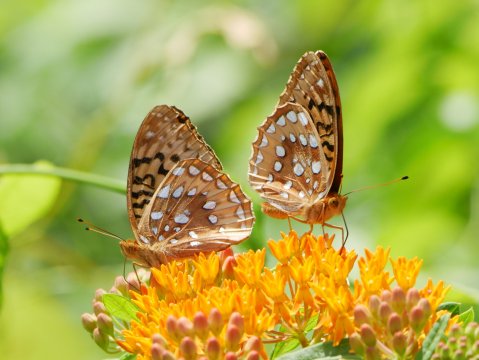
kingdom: Animalia
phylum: Arthropoda
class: Insecta
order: Lepidoptera
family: Nymphalidae
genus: Speyeria
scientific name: Speyeria cybele
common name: Great Spangled Fritillary
